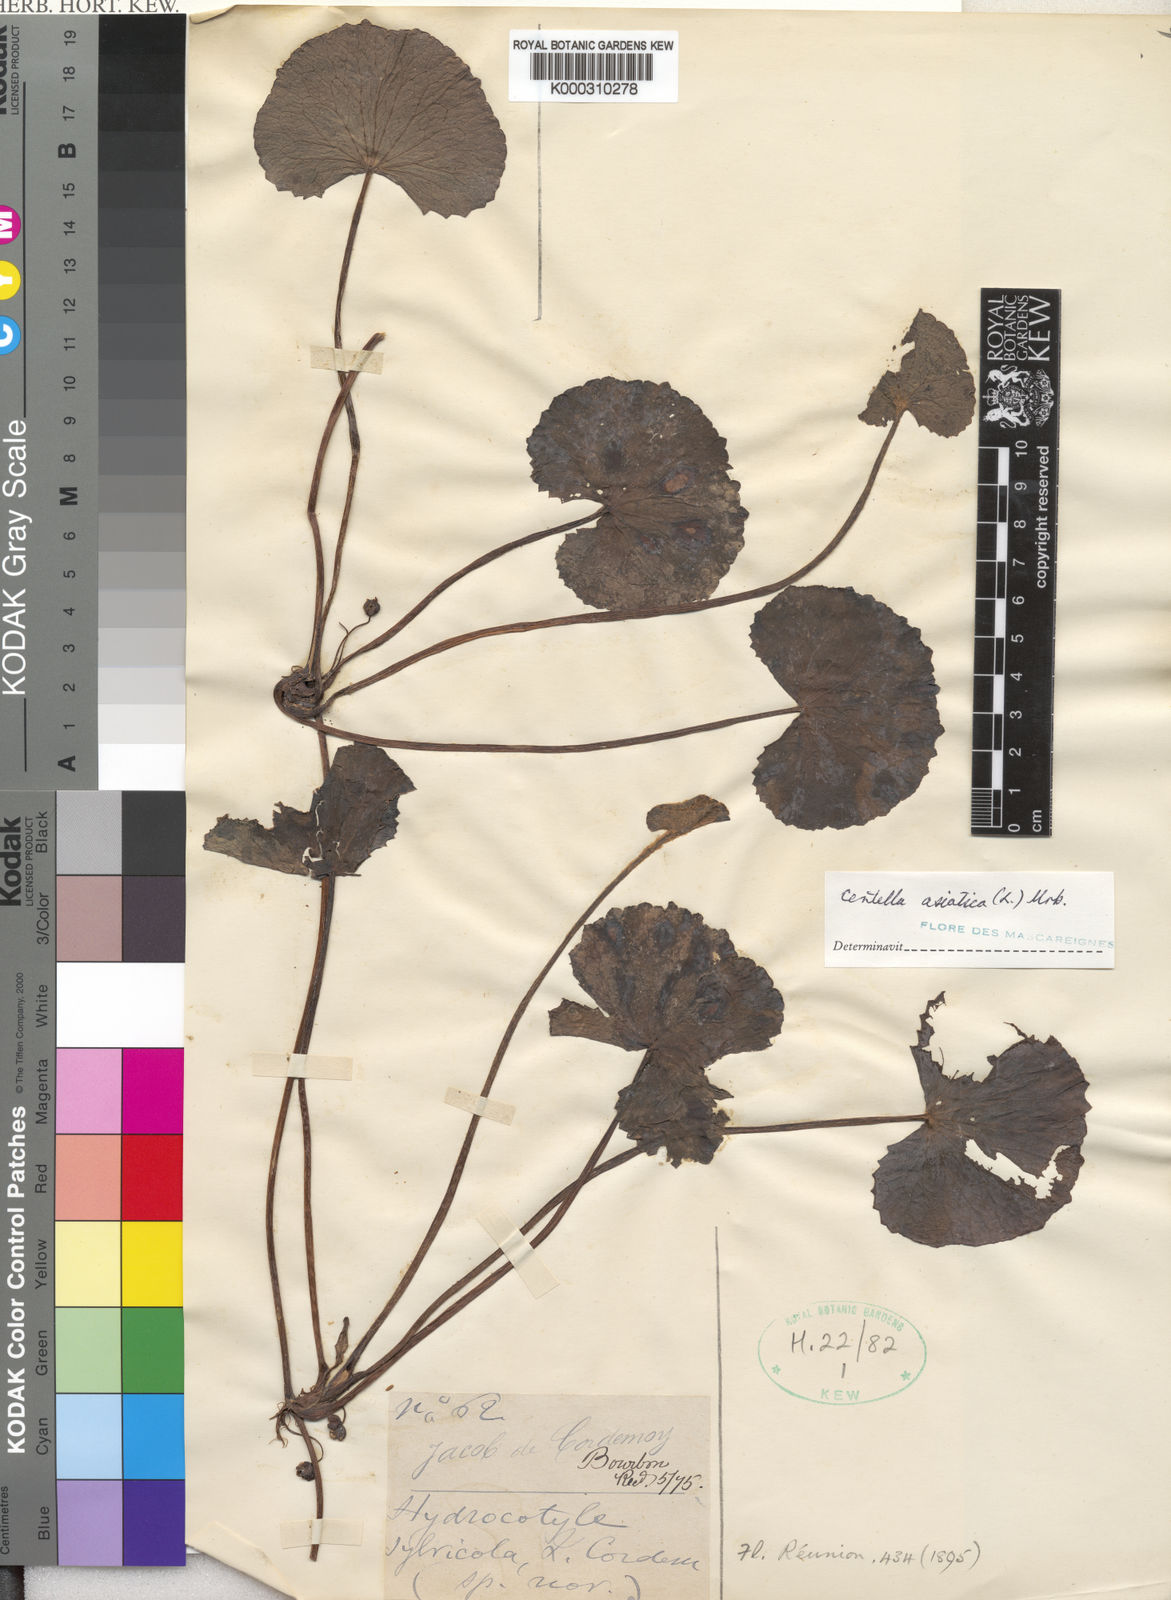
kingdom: Plantae
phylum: Tracheophyta
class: Magnoliopsida
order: Apiales
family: Apiaceae
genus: Centella
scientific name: Centella asiatica
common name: Spadeleaf
